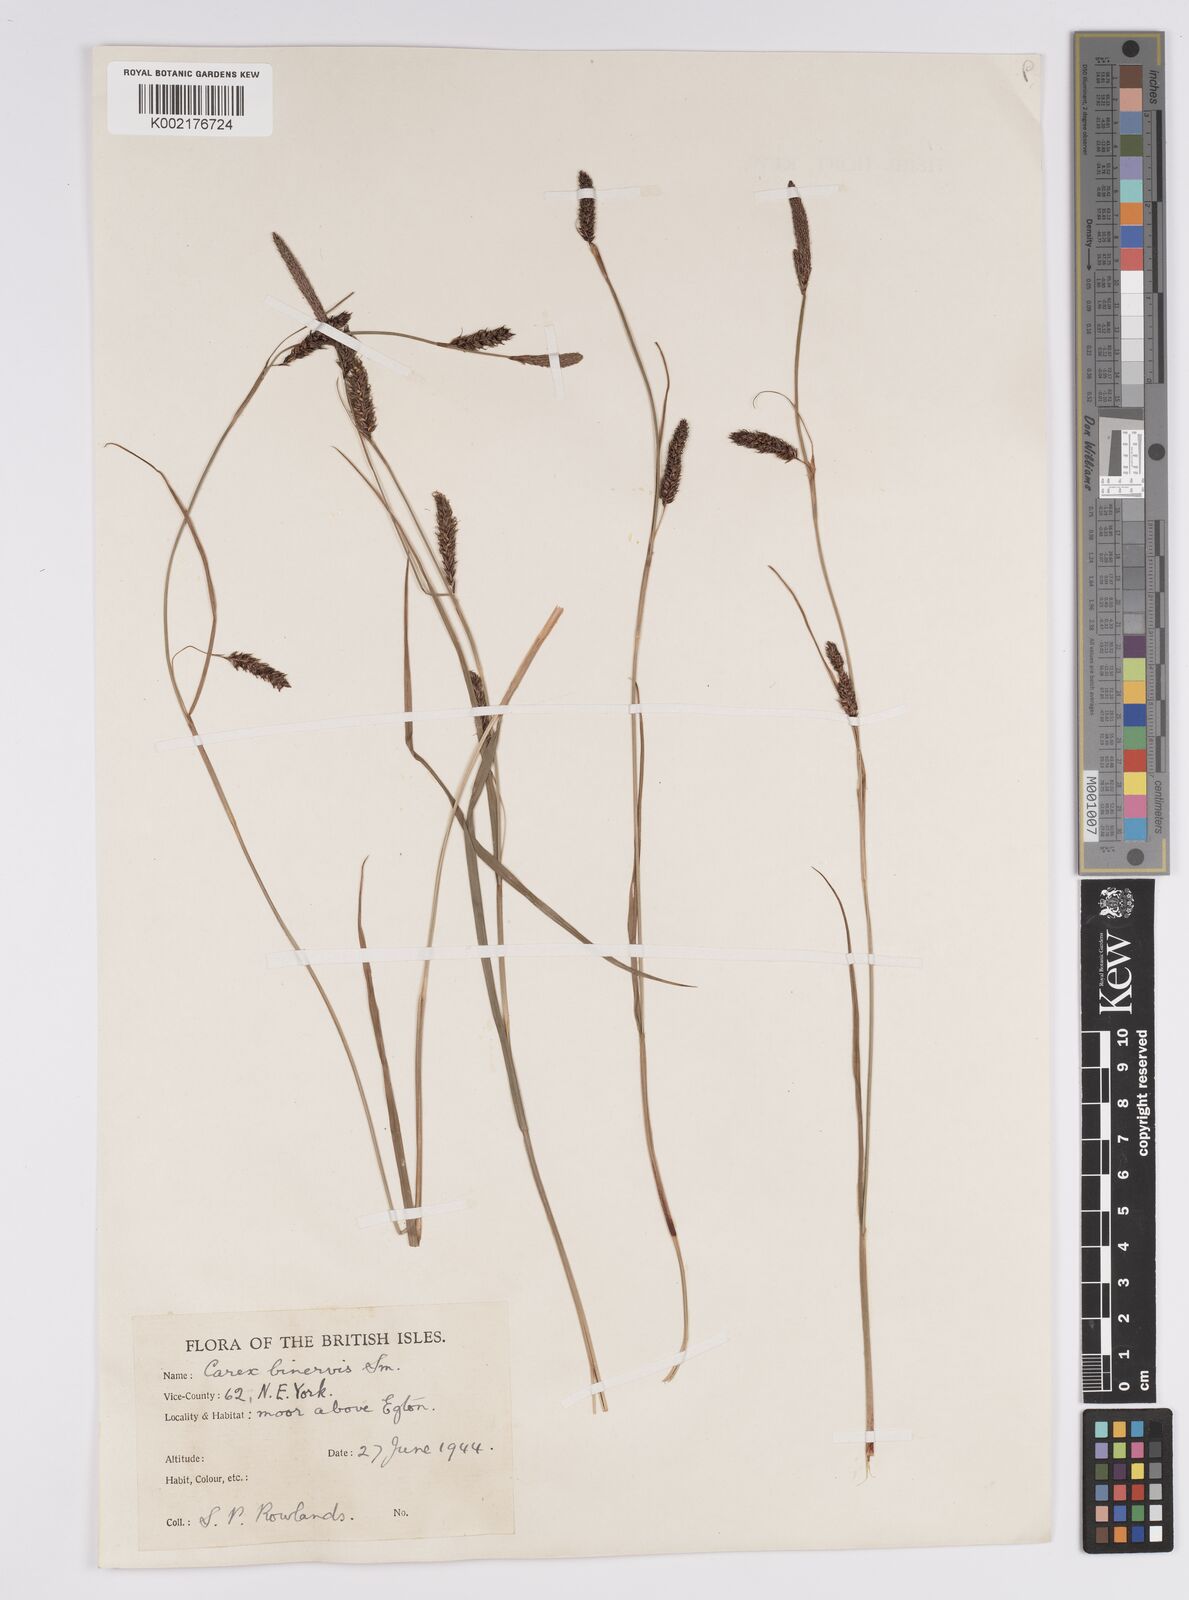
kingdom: Plantae
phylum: Tracheophyta
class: Liliopsida
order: Poales
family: Cyperaceae
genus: Carex
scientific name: Carex binervis
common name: Green-ribbed sedge
